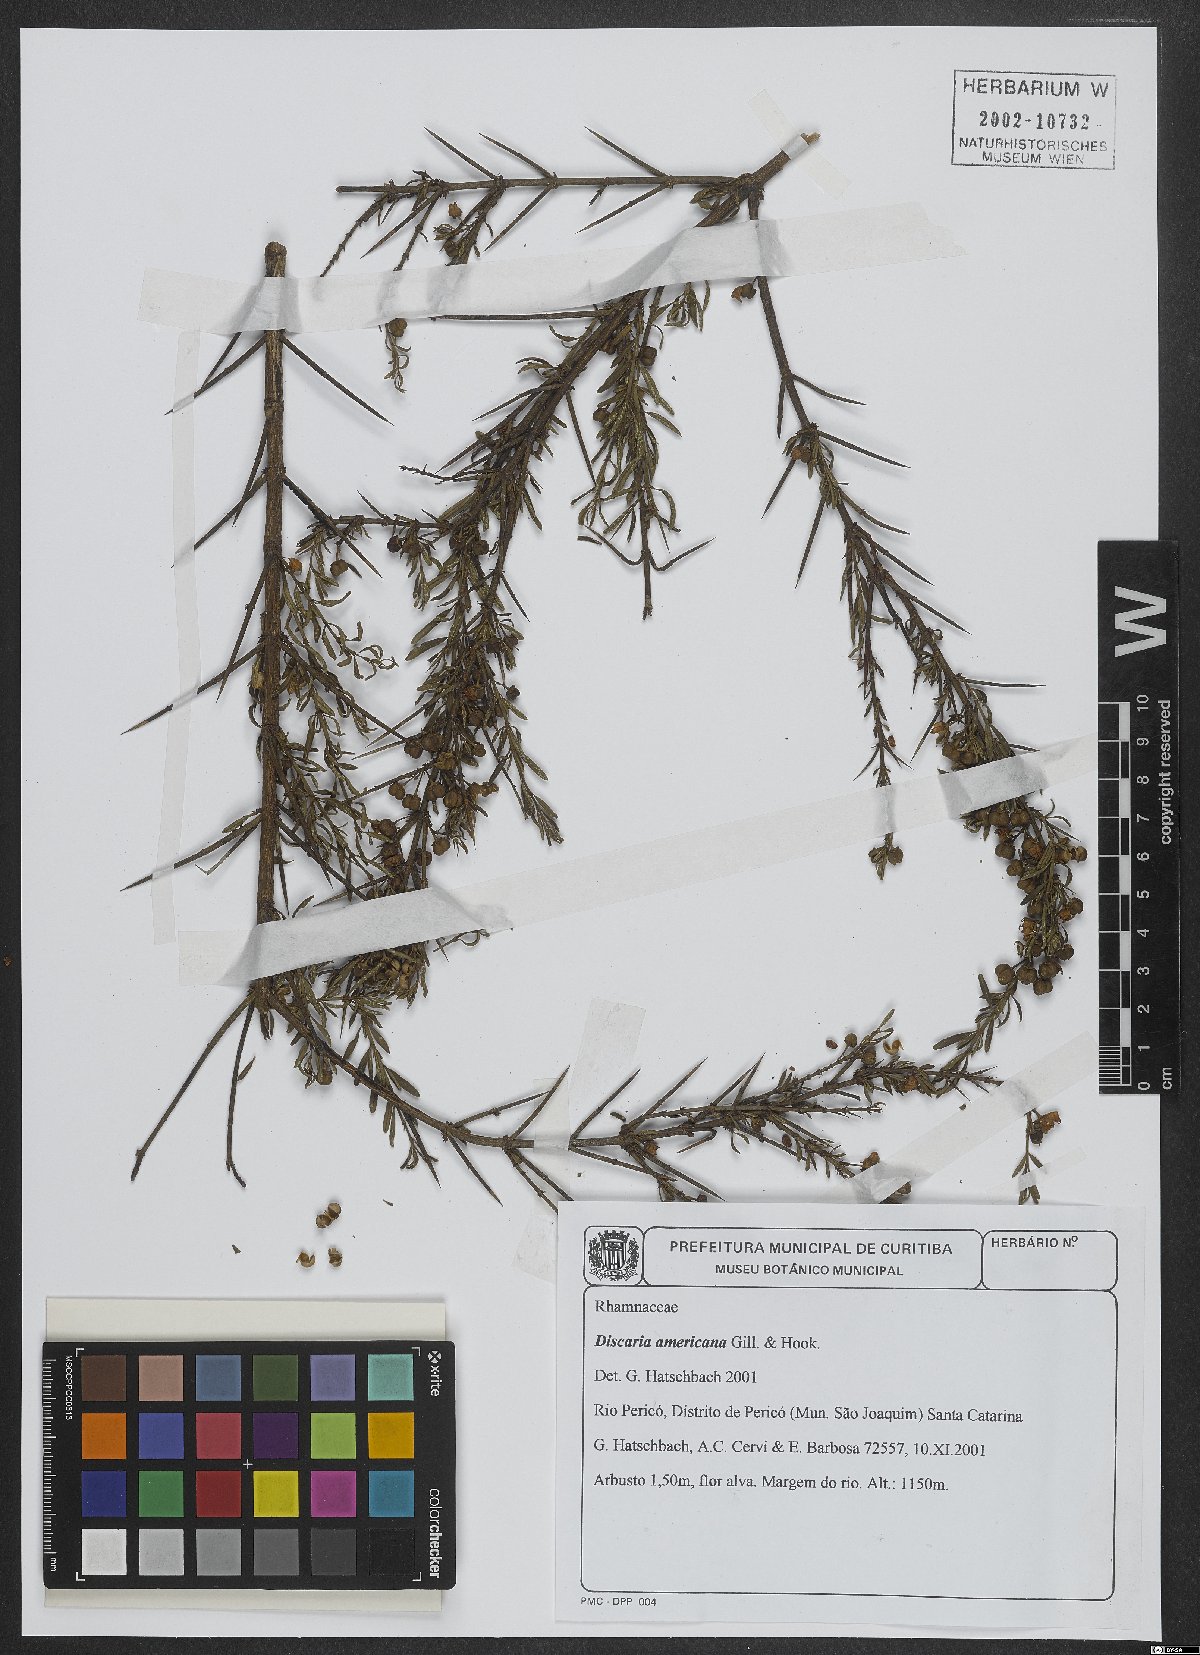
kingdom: Plantae
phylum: Tracheophyta
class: Magnoliopsida
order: Rosales
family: Rhamnaceae
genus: Discaria
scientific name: Discaria americana
